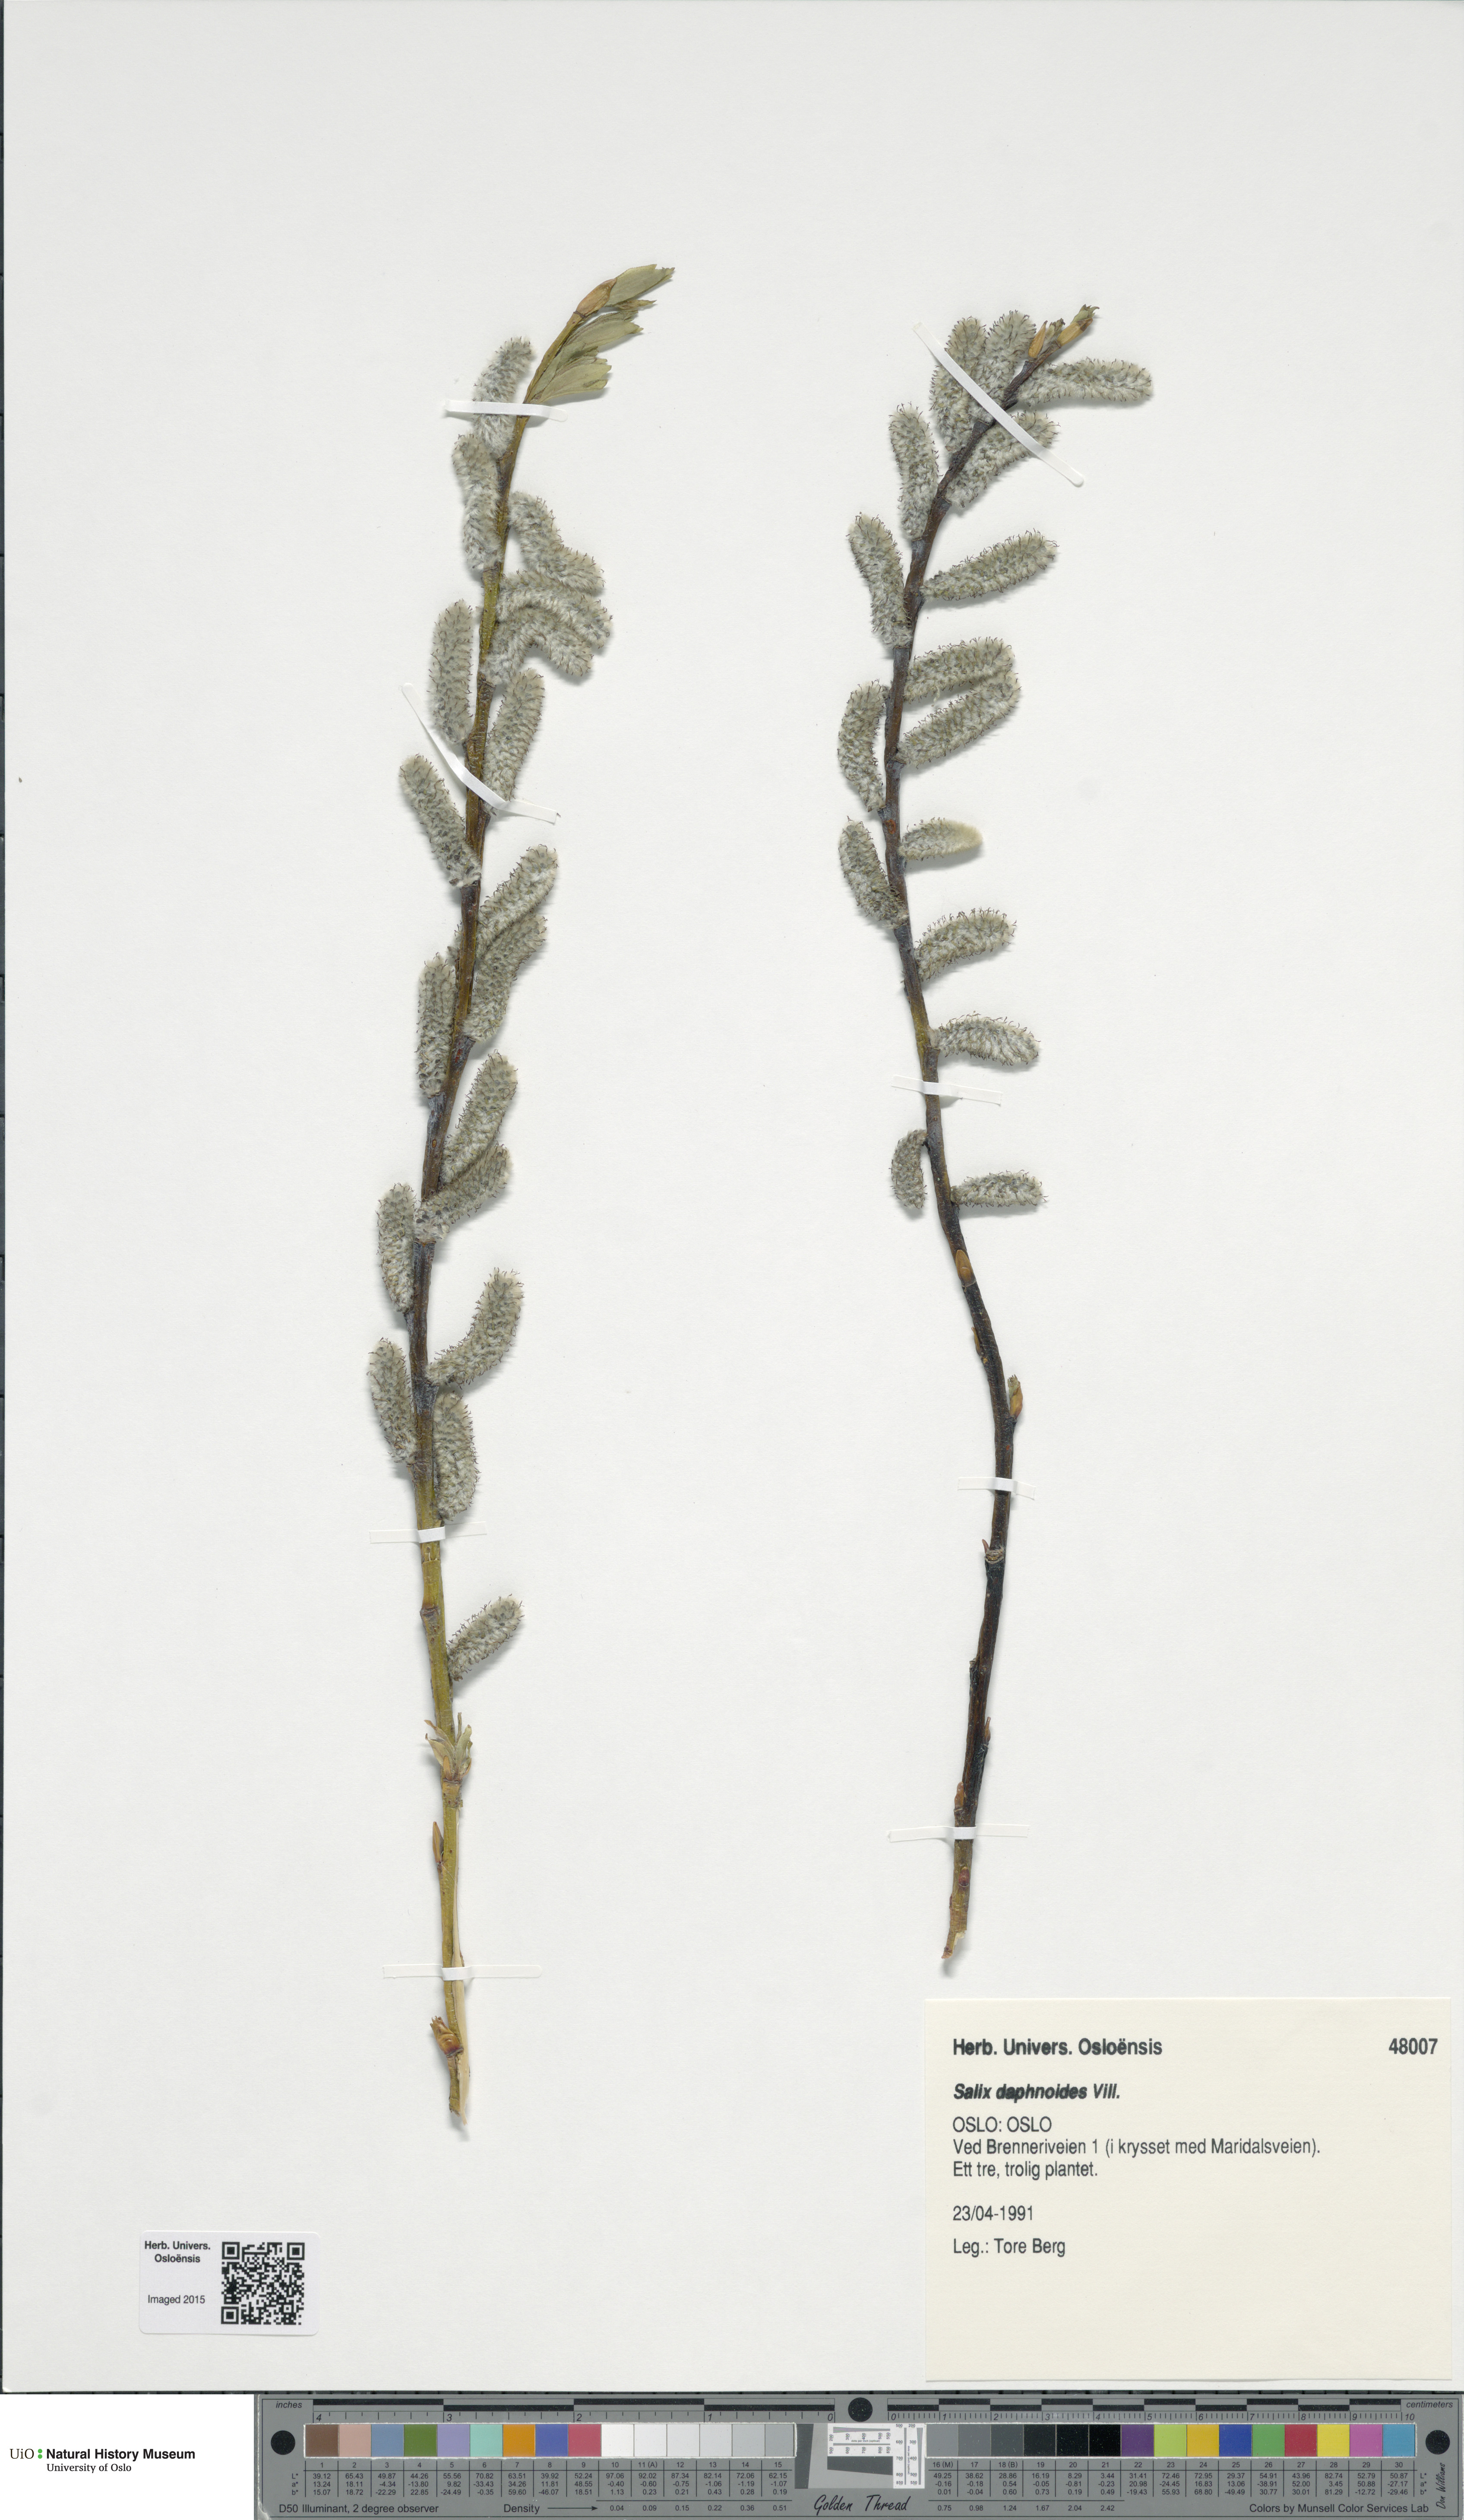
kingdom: Plantae
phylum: Tracheophyta
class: Magnoliopsida
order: Malpighiales
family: Salicaceae
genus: Salix
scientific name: Salix daphnoides
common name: European violet-willow
